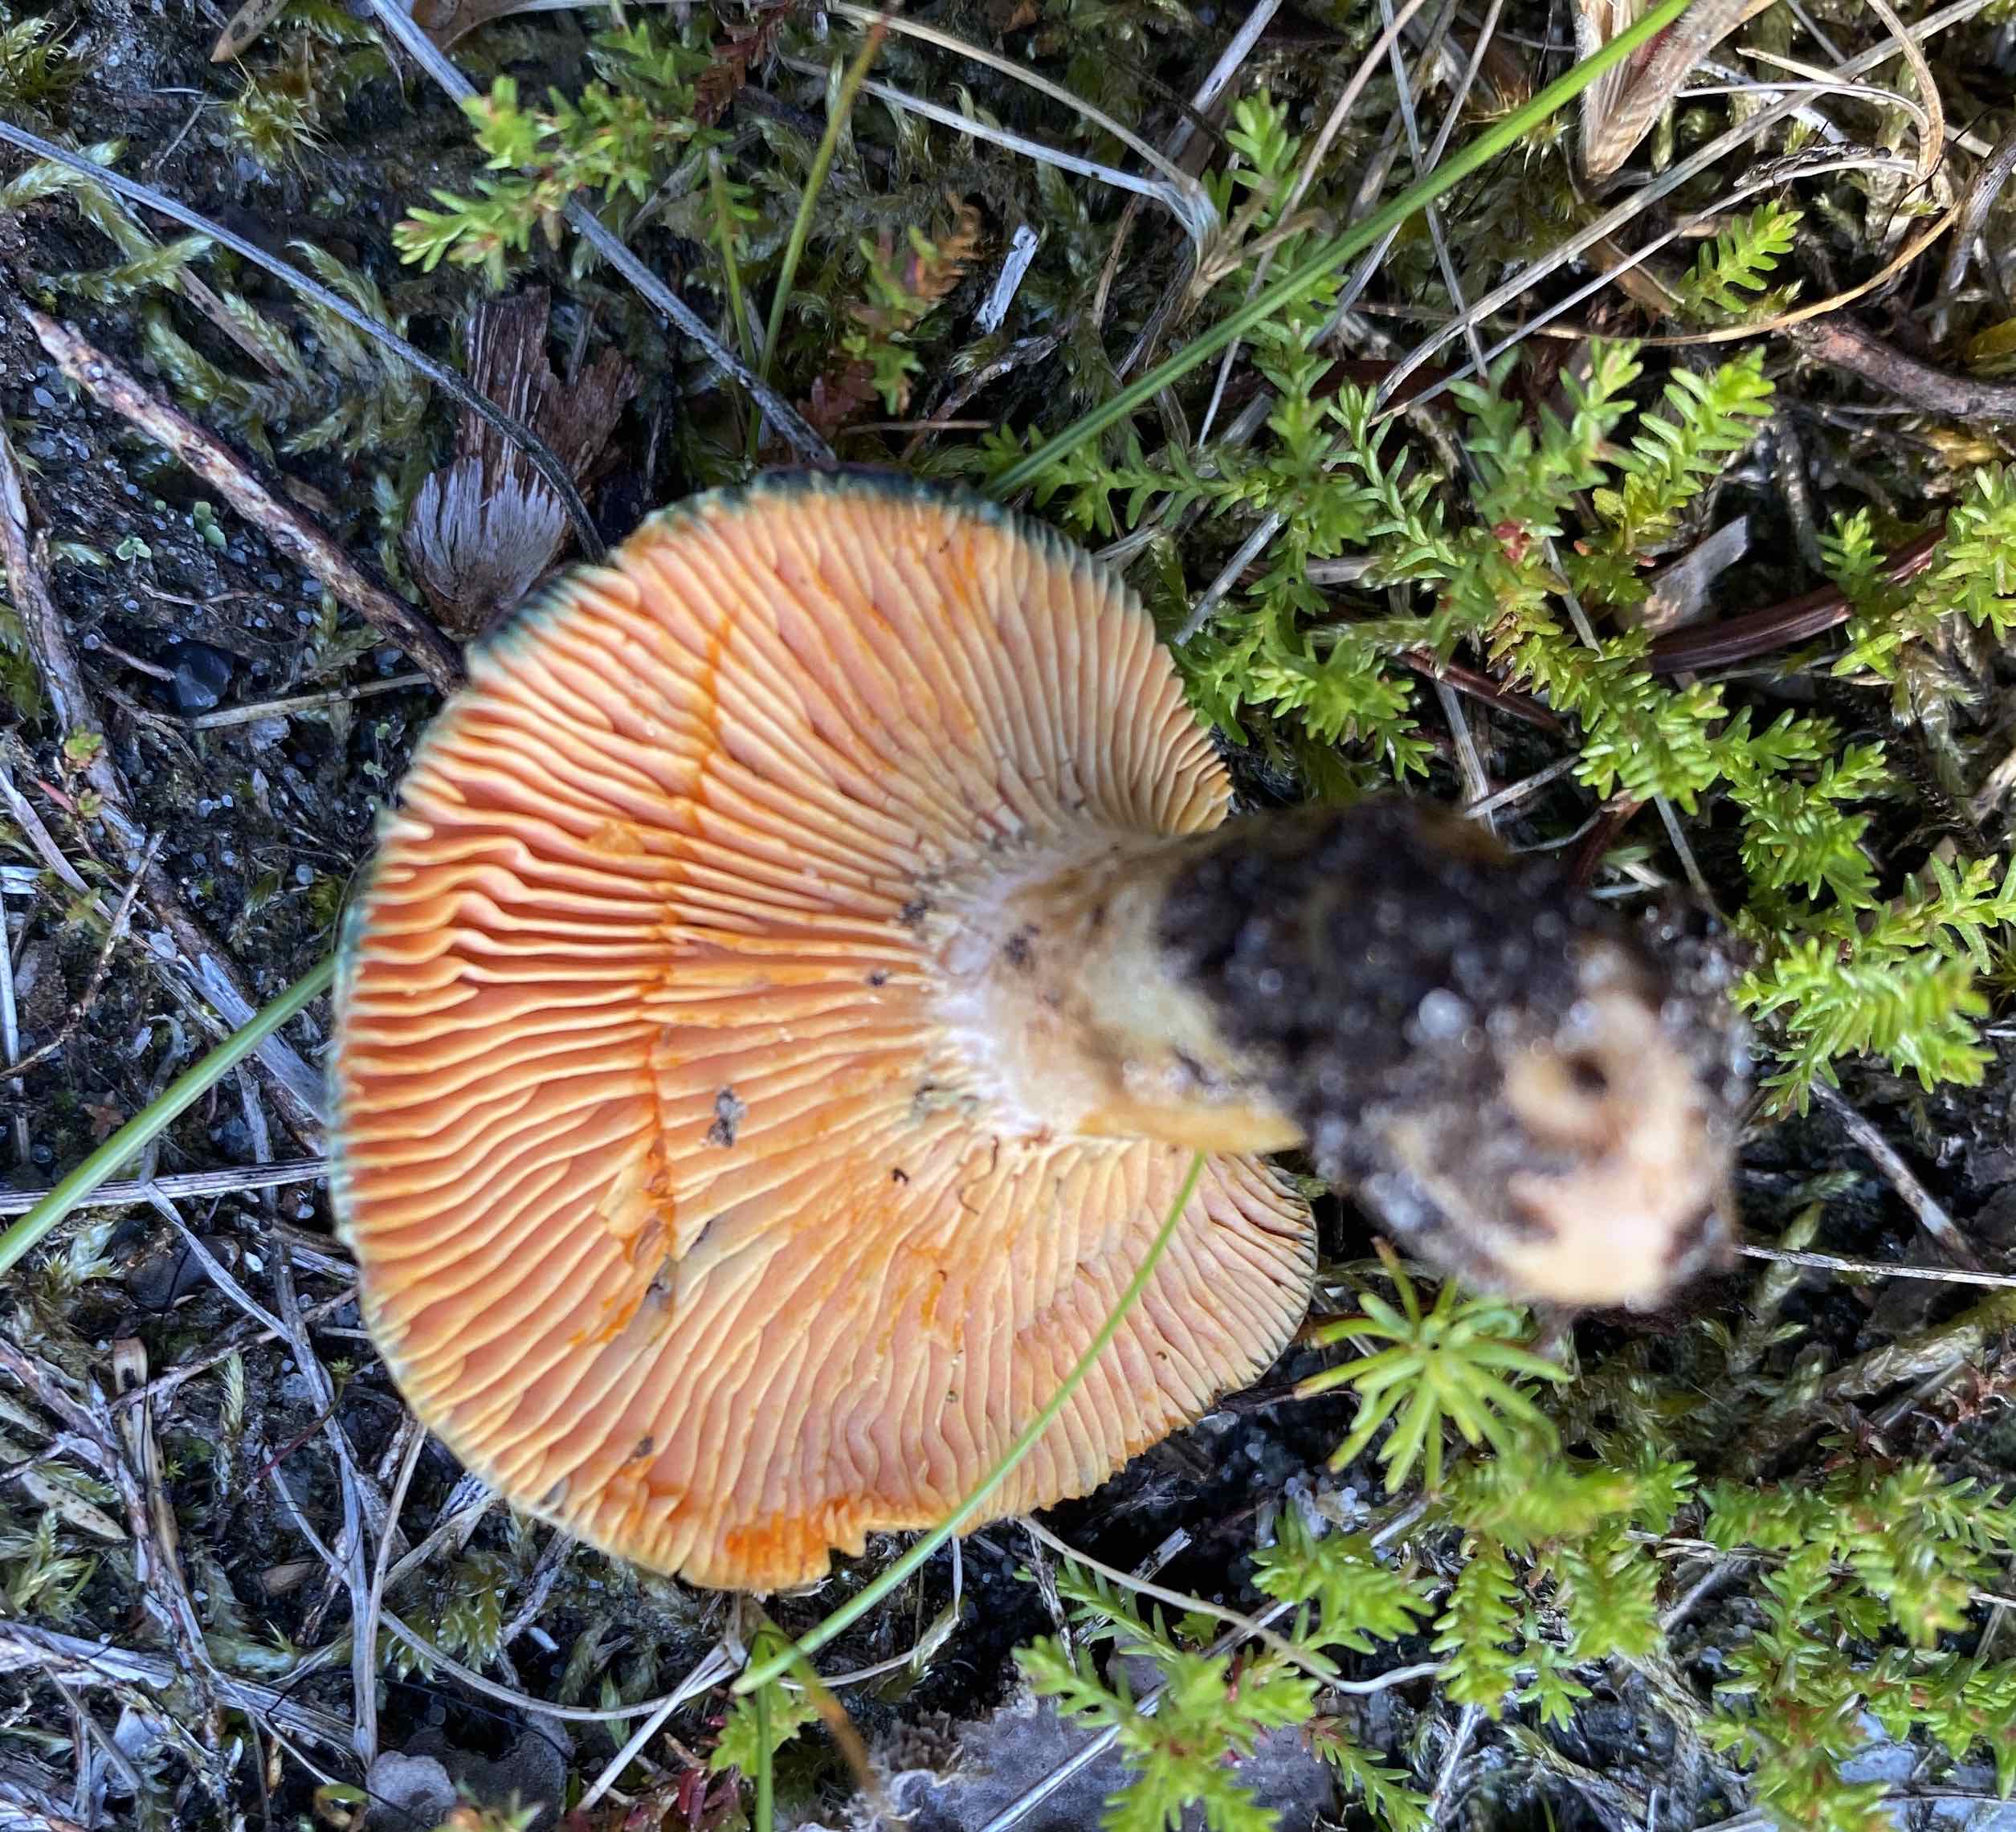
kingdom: Fungi
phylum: Basidiomycota
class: Agaricomycetes
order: Russulales
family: Russulaceae
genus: Lactarius
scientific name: Lactarius deterrimus
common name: gran-mælkehat
